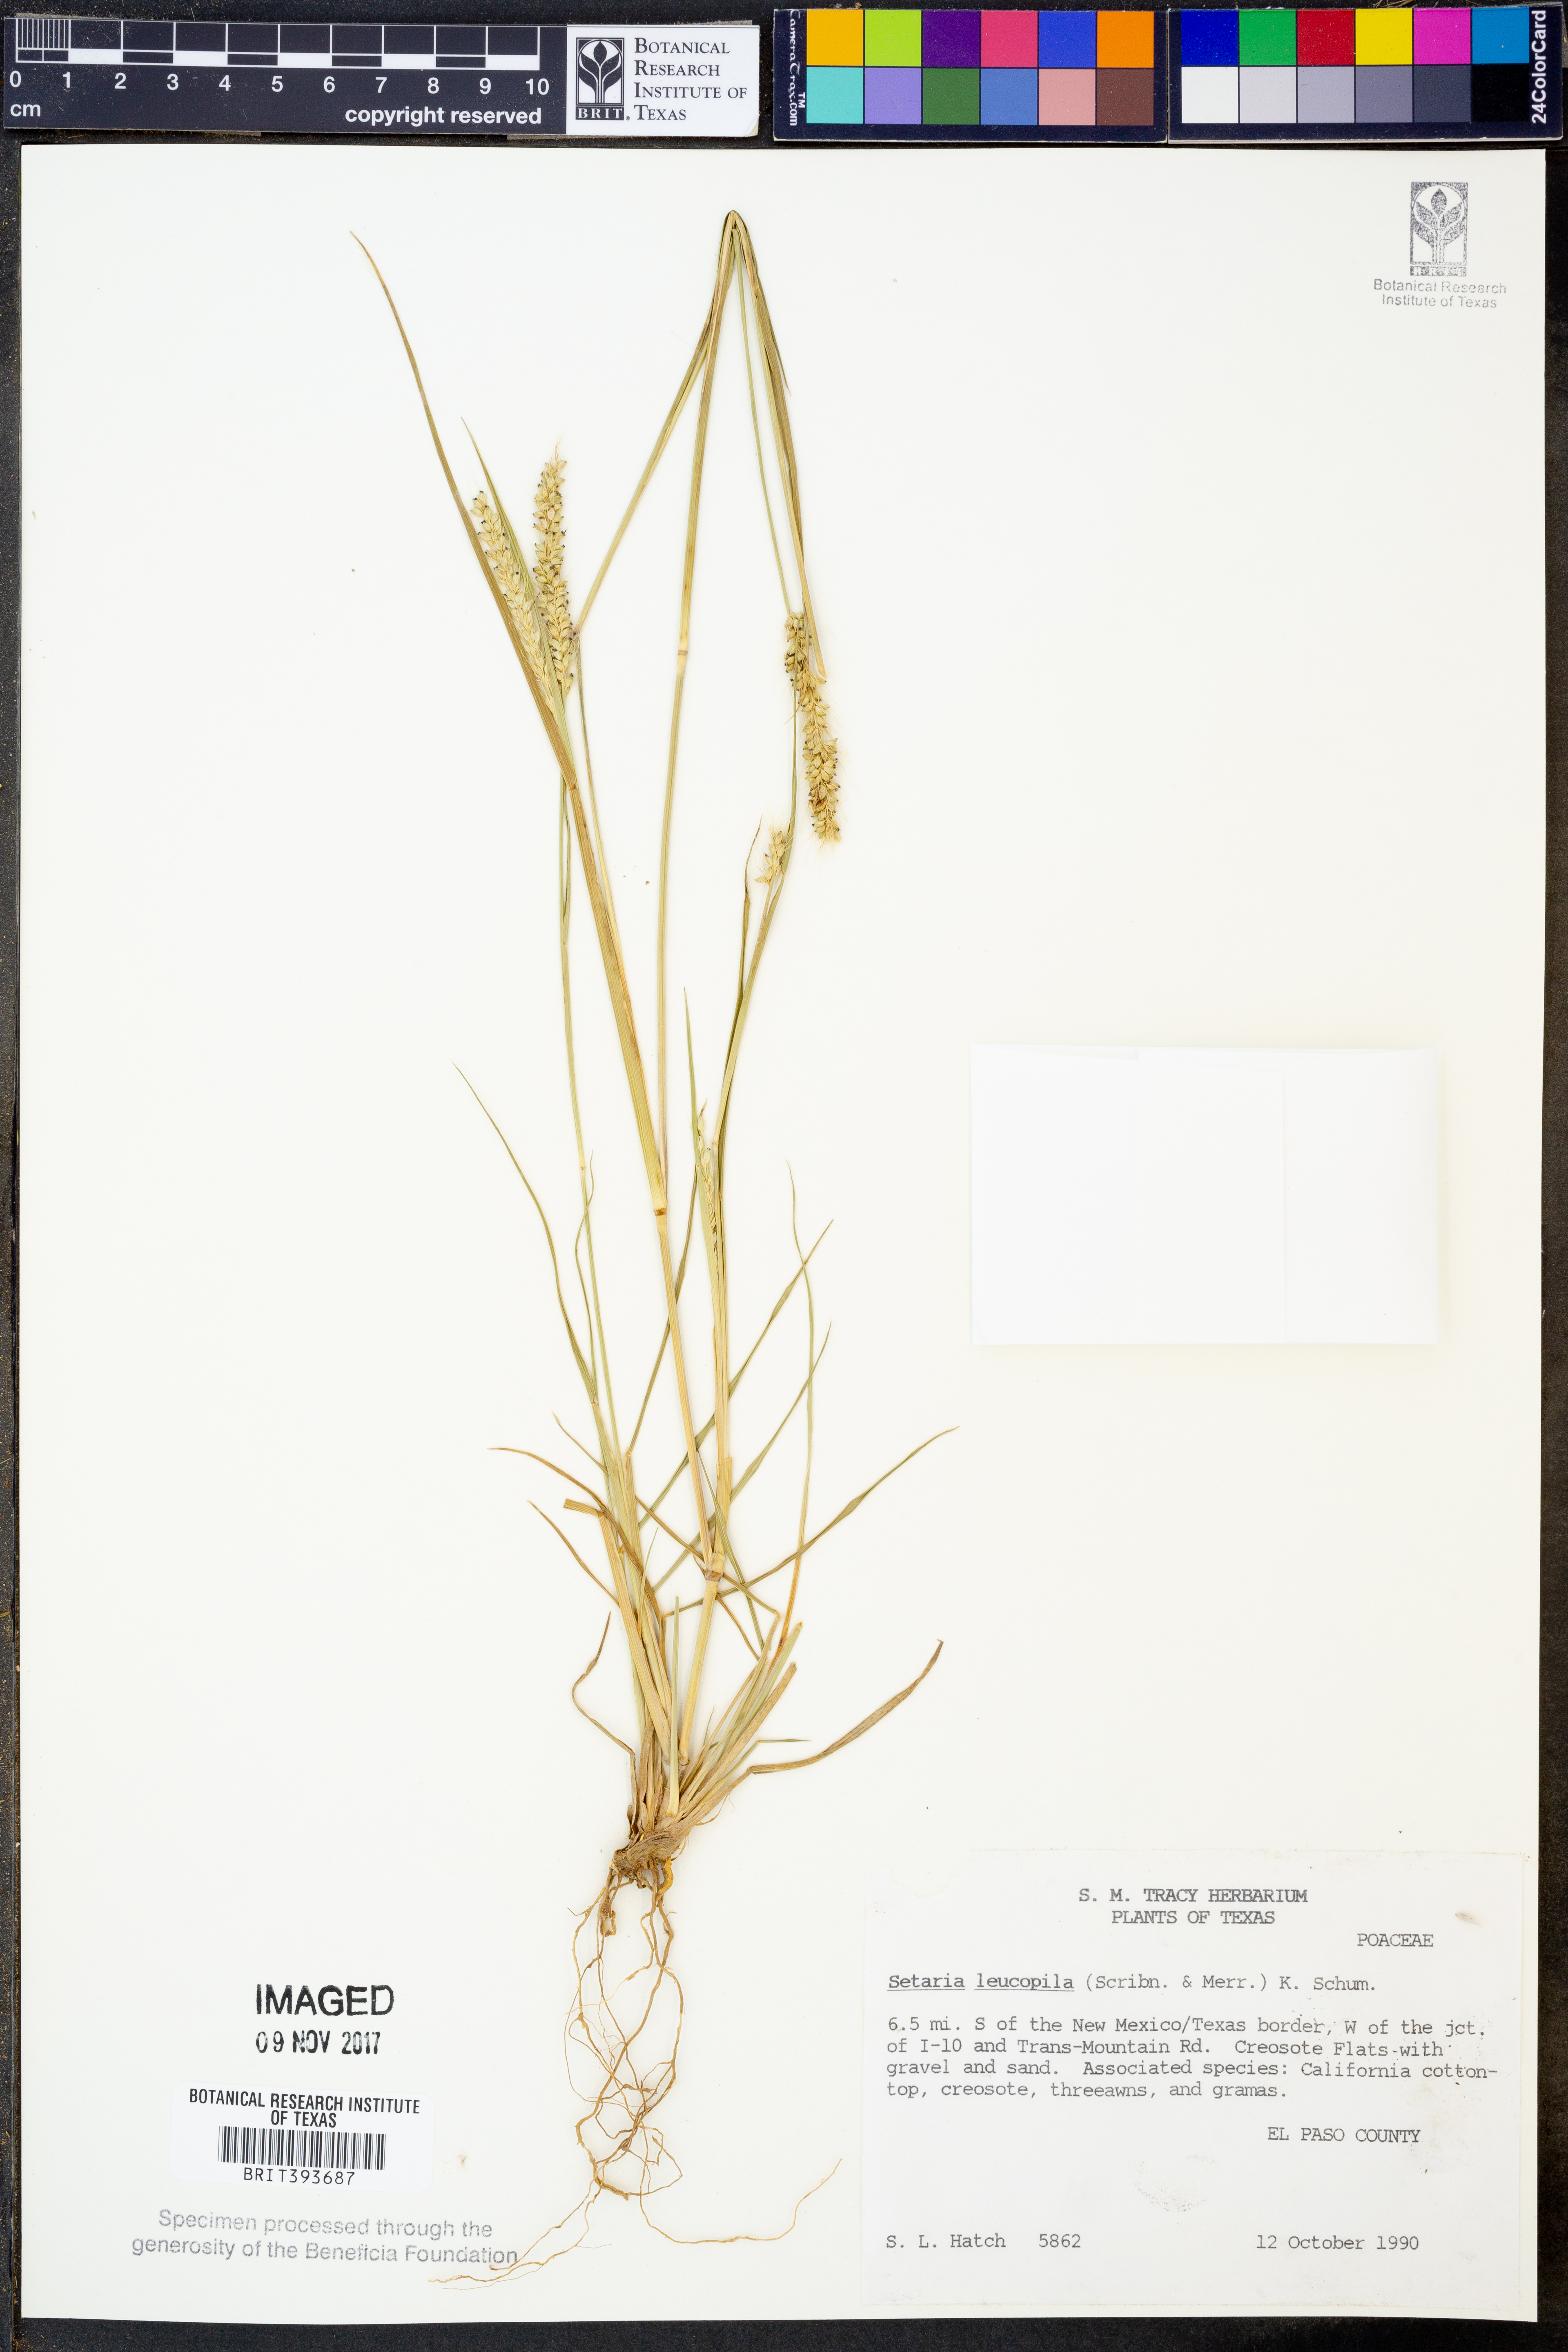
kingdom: Plantae
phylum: Tracheophyta
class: Liliopsida
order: Poales
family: Poaceae
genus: Setaria
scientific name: Setaria leucopila
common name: Plains bristle grass
